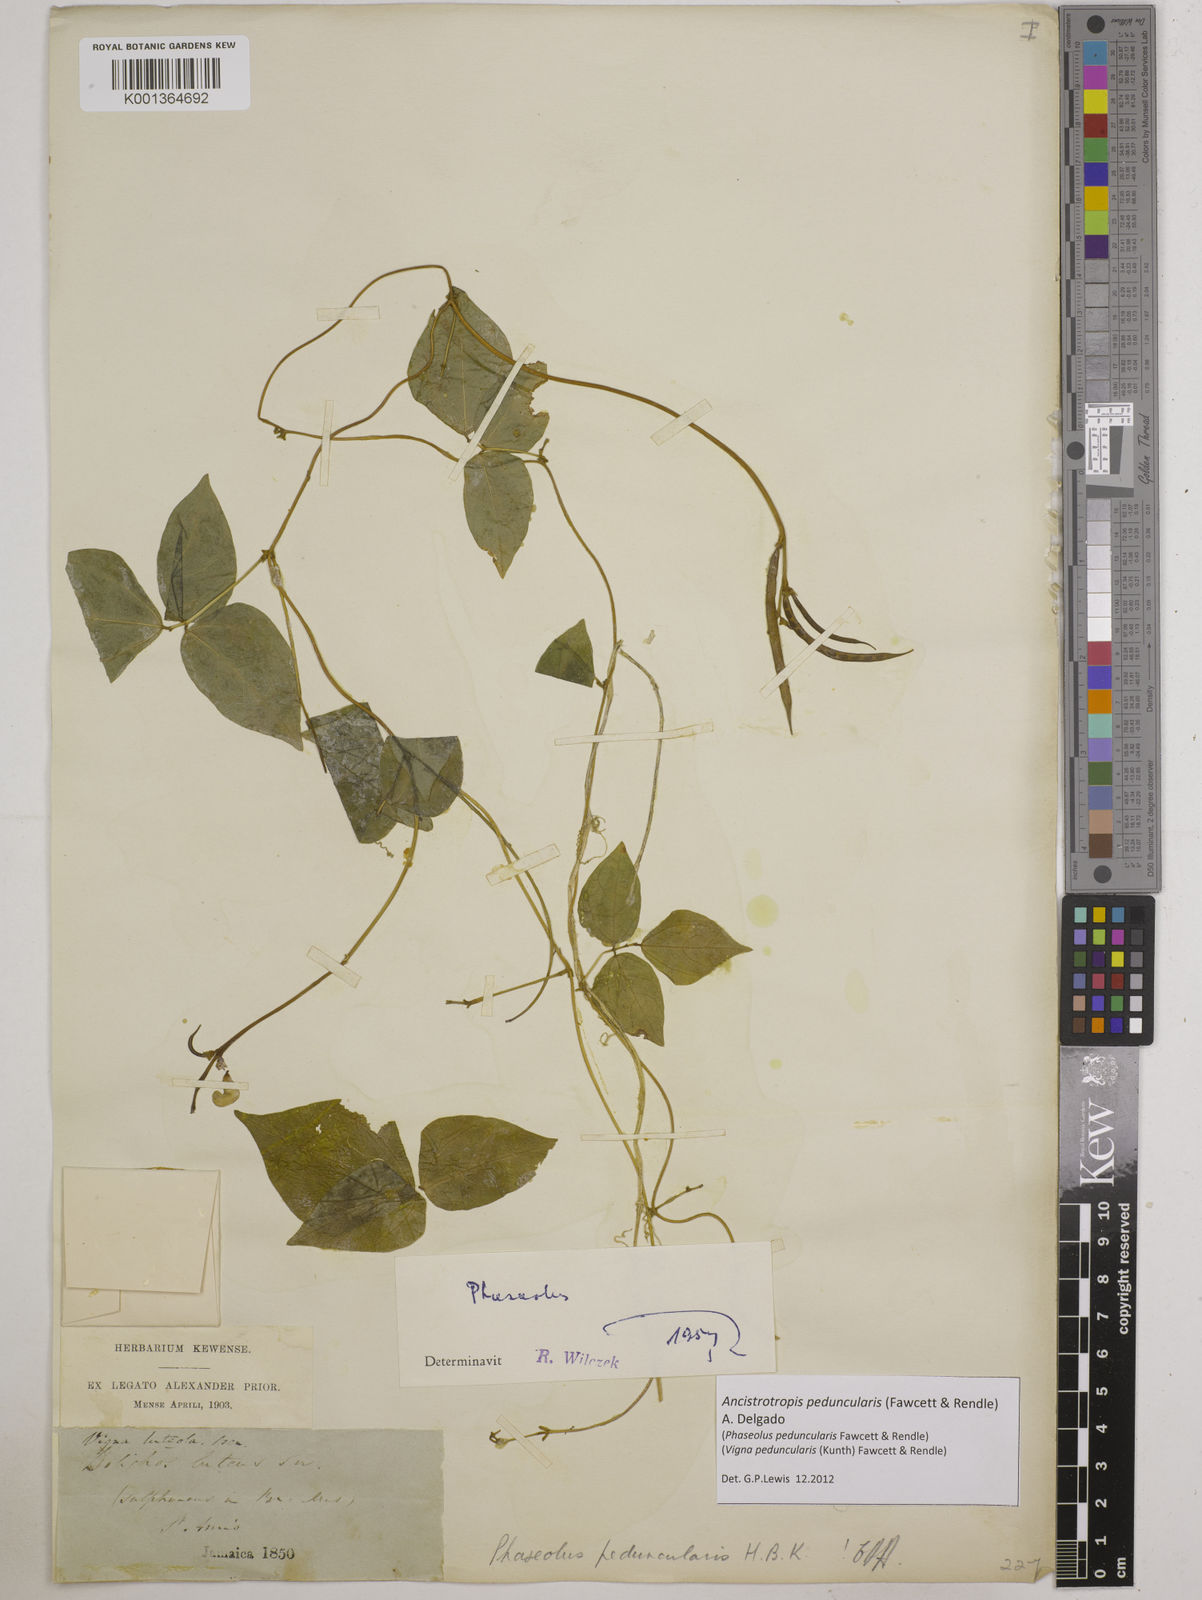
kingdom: Plantae
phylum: Tracheophyta
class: Magnoliopsida
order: Fabales
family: Fabaceae
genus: Ancistrotropis
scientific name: Ancistrotropis peduncularis
